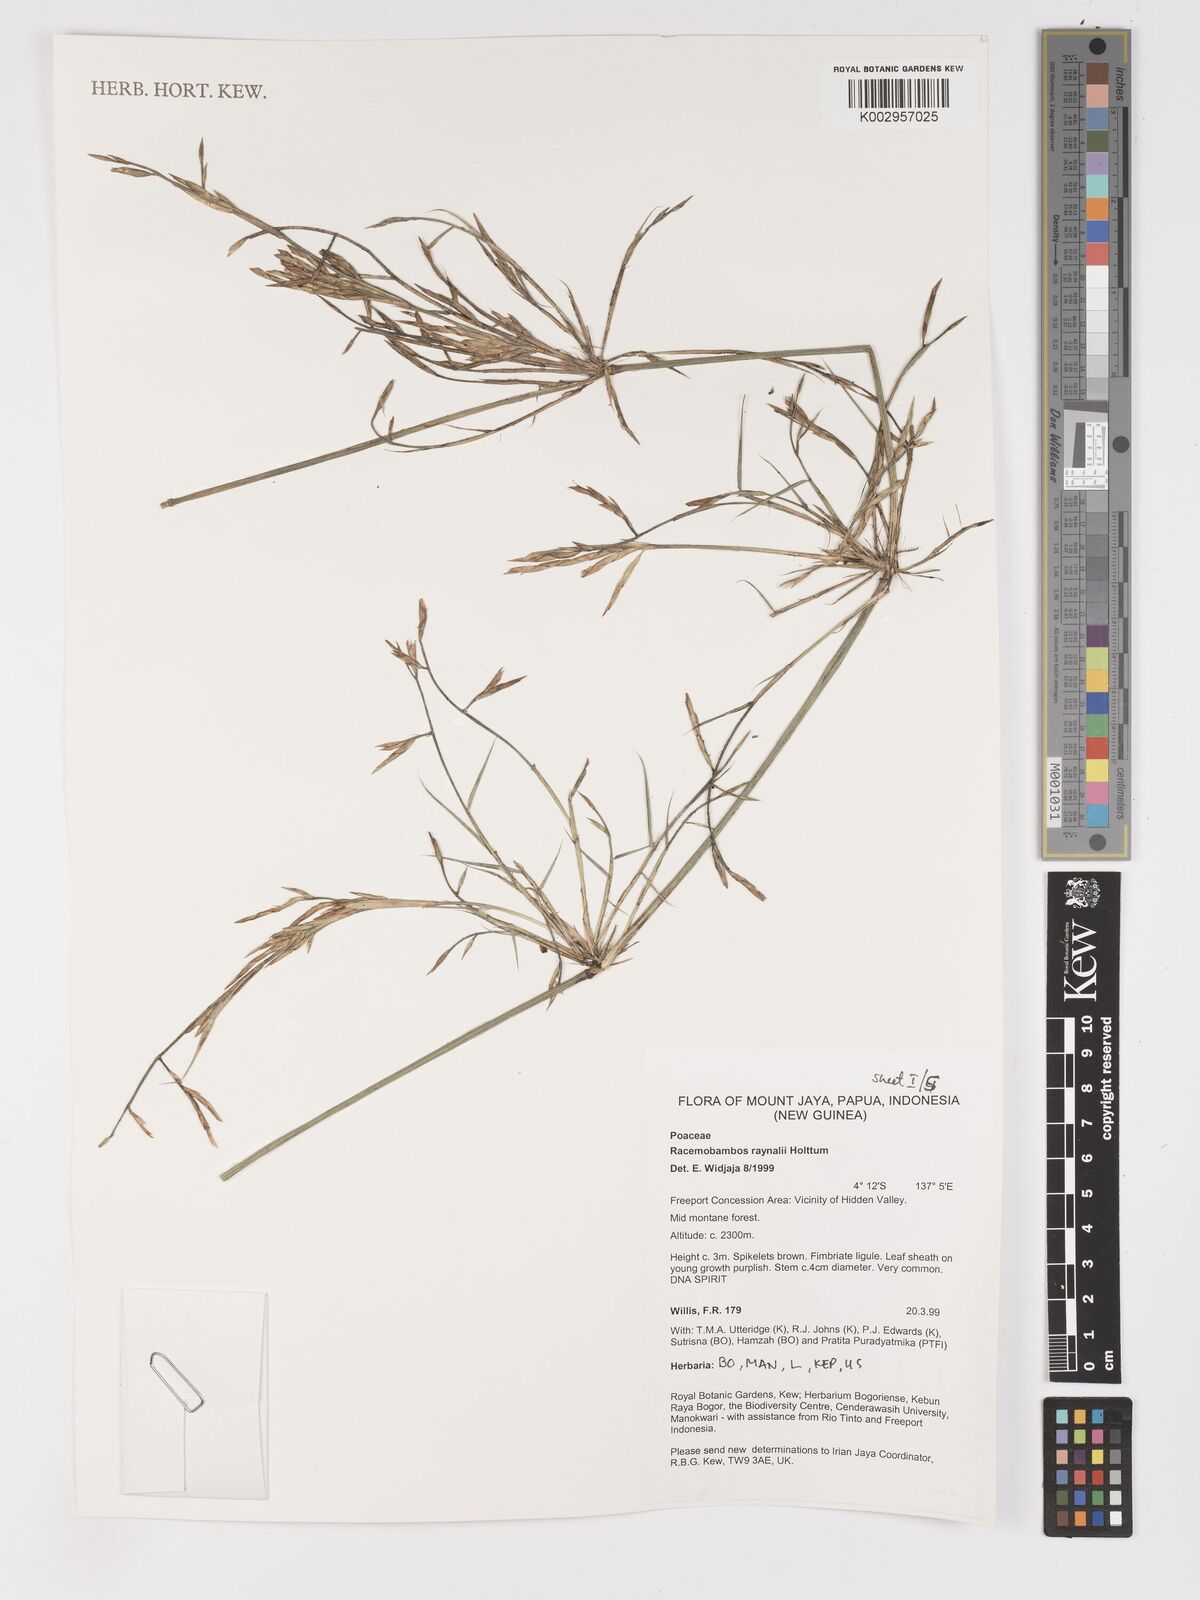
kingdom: Plantae
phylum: Tracheophyta
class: Liliopsida
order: Poales
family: Poaceae
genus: Racemobambos
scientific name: Racemobambos raynalii
